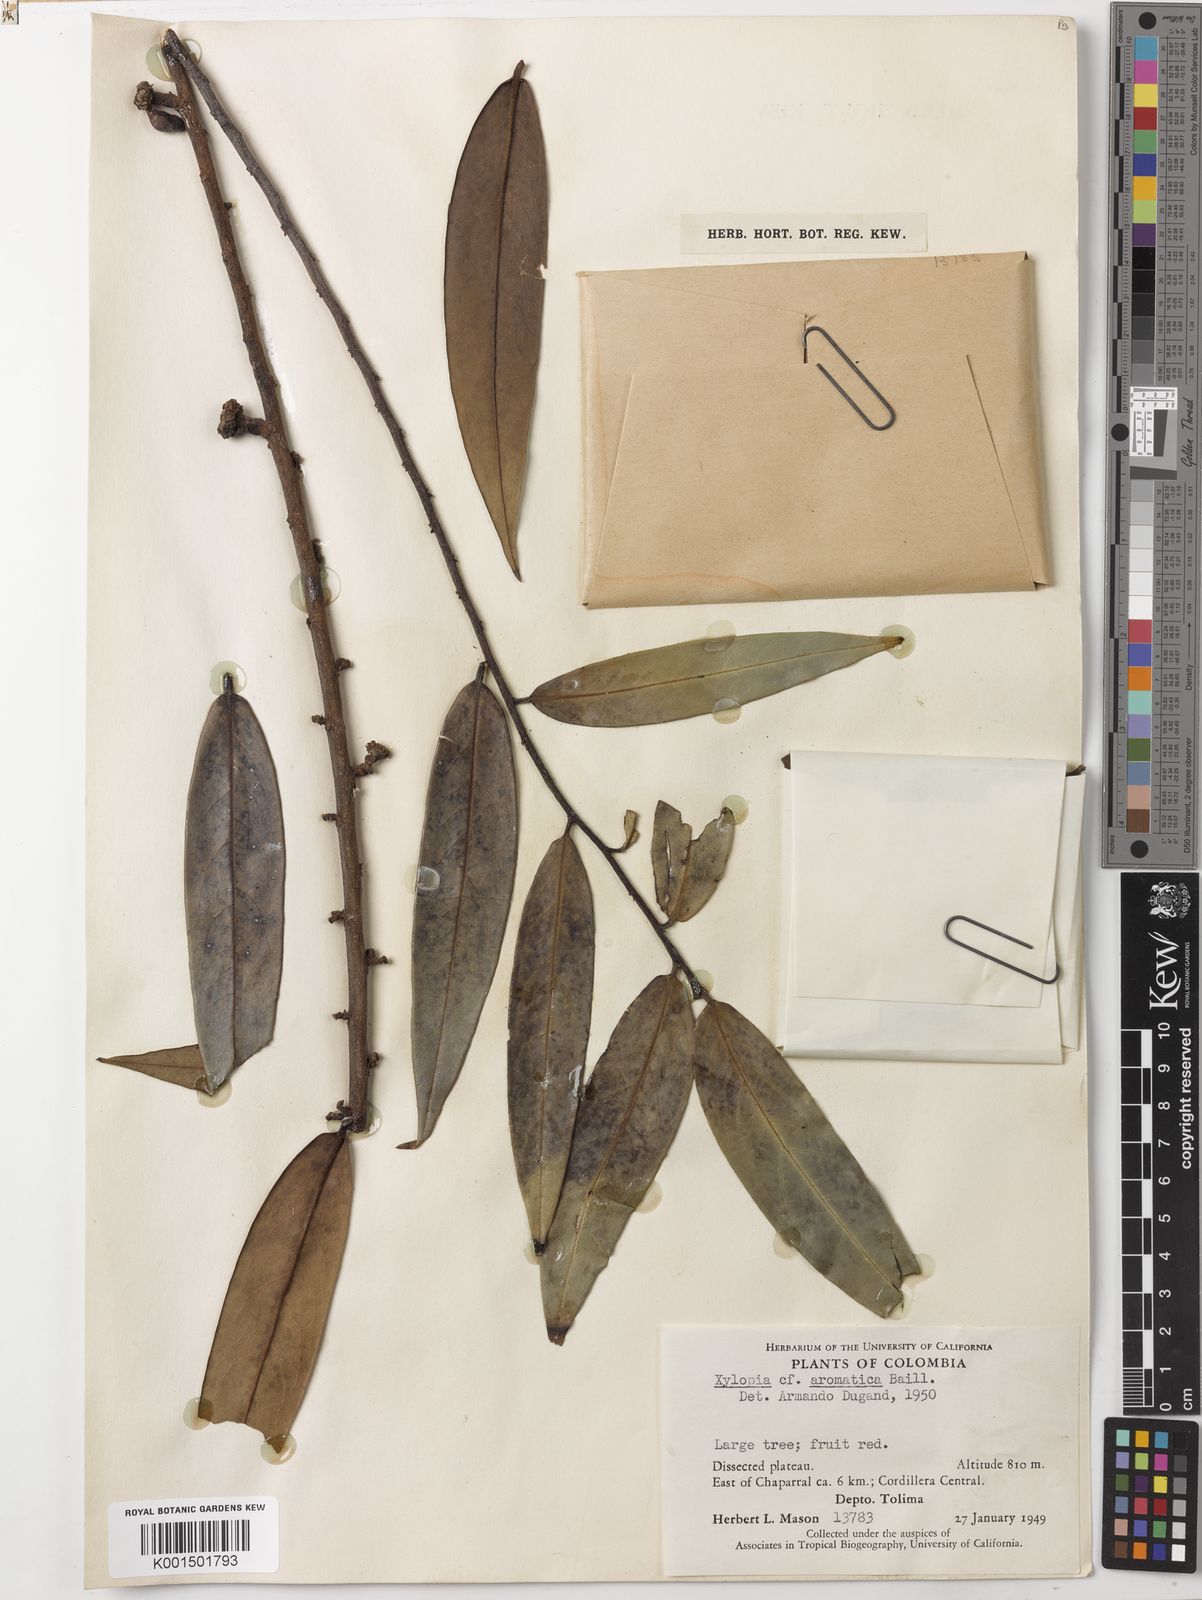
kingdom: Plantae
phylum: Tracheophyta
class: Magnoliopsida
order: Magnoliales
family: Annonaceae
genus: Xylopia
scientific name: Xylopia aromatica
